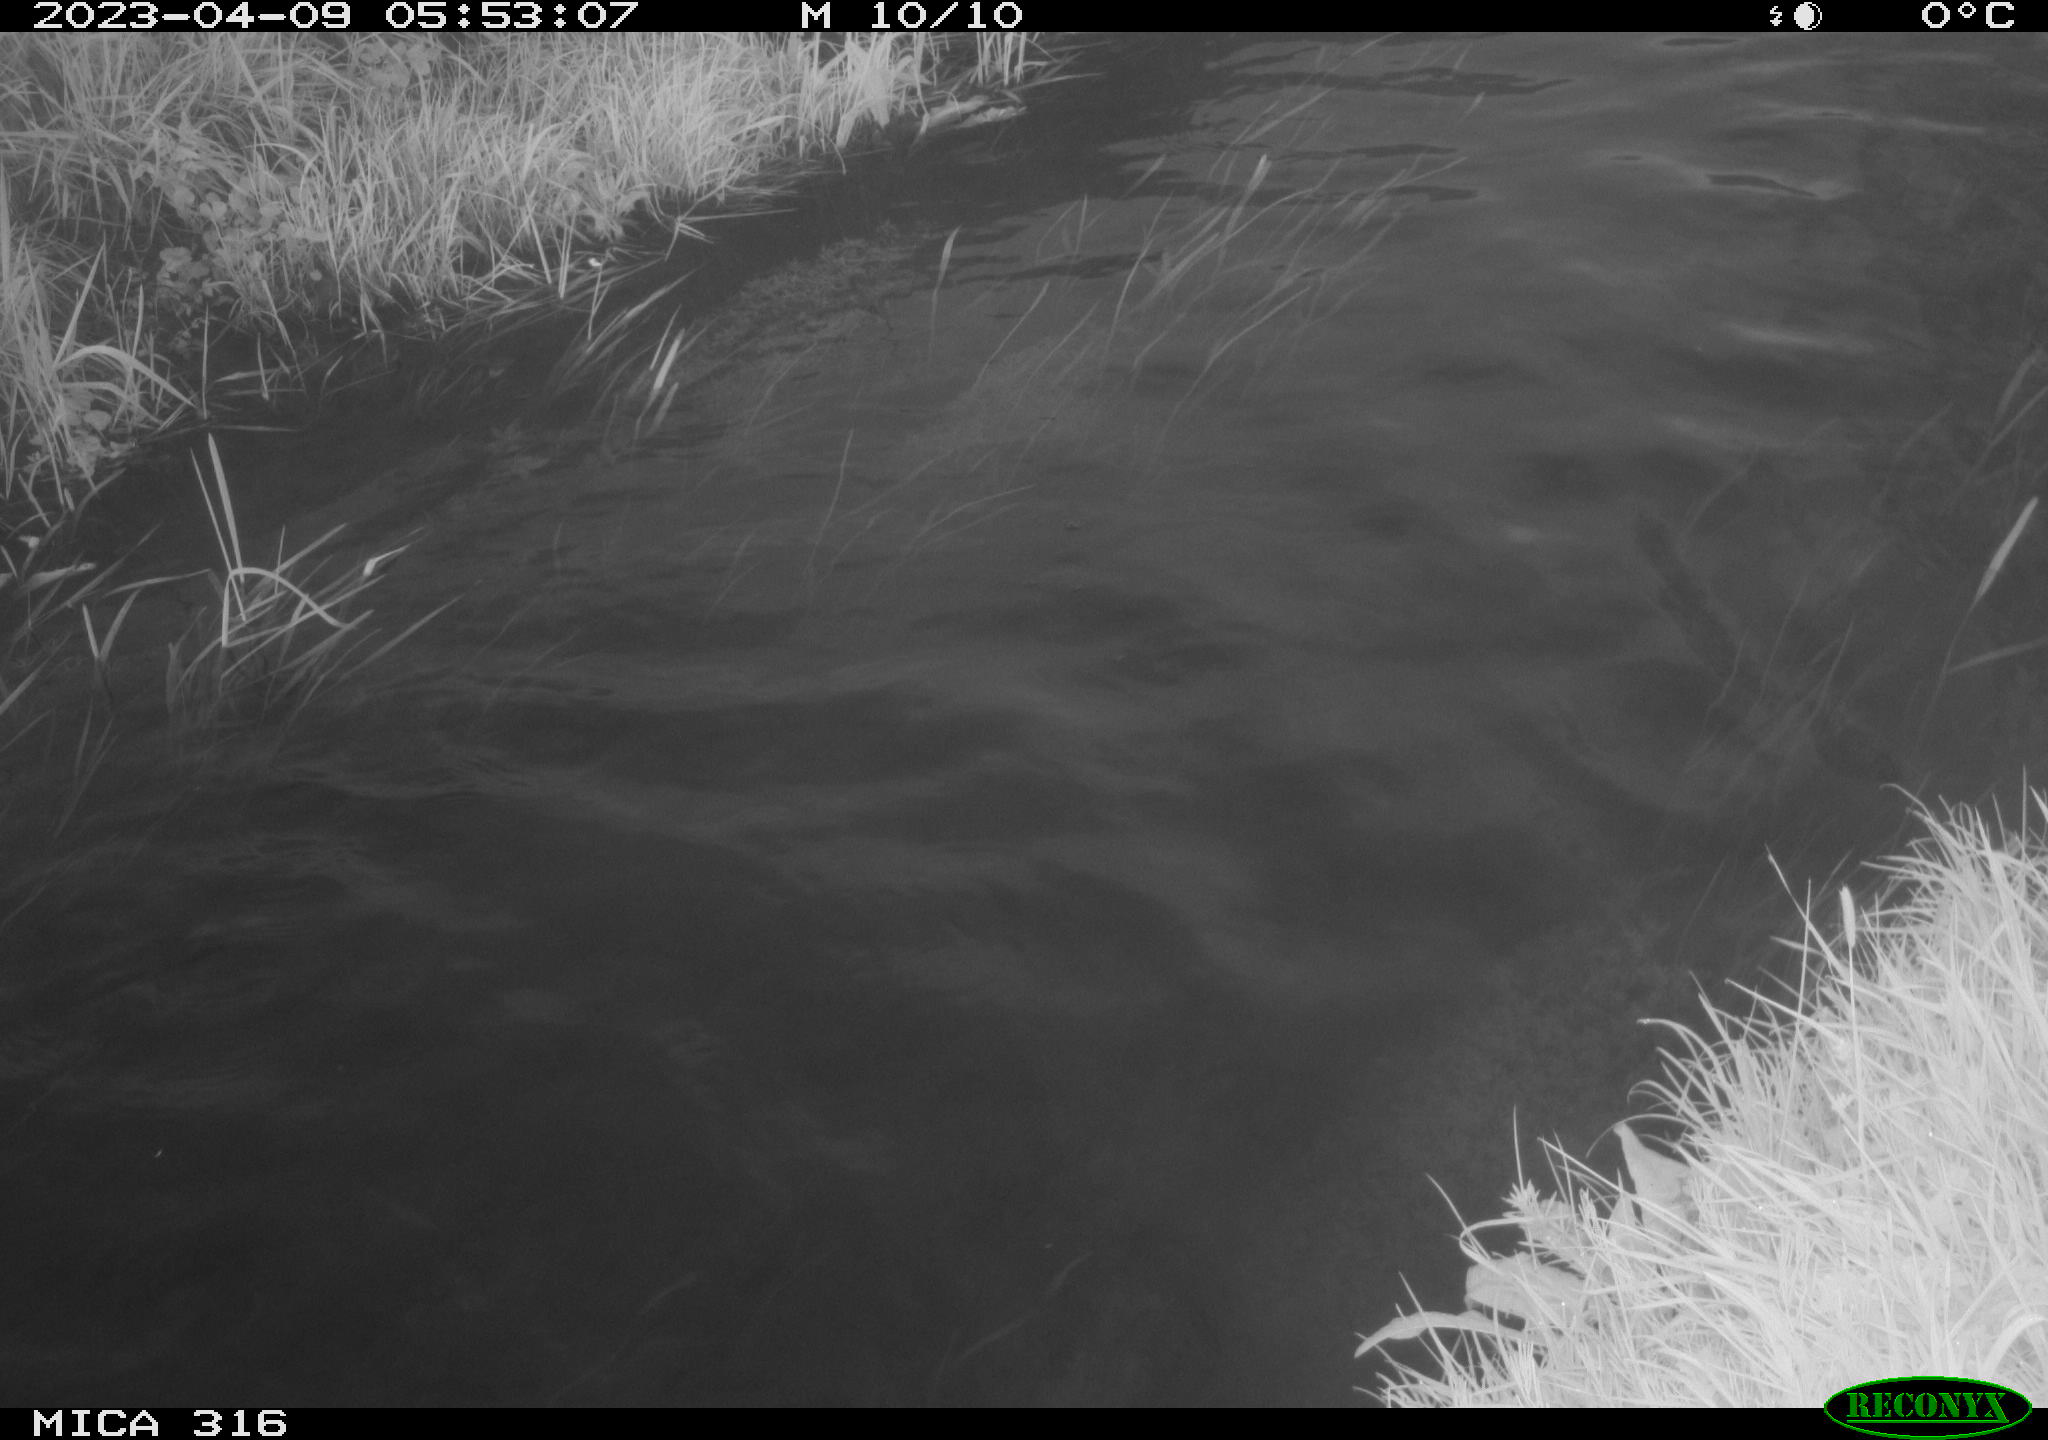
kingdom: Animalia
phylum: Chordata
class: Aves
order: Anseriformes
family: Anatidae
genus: Anas
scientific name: Anas
